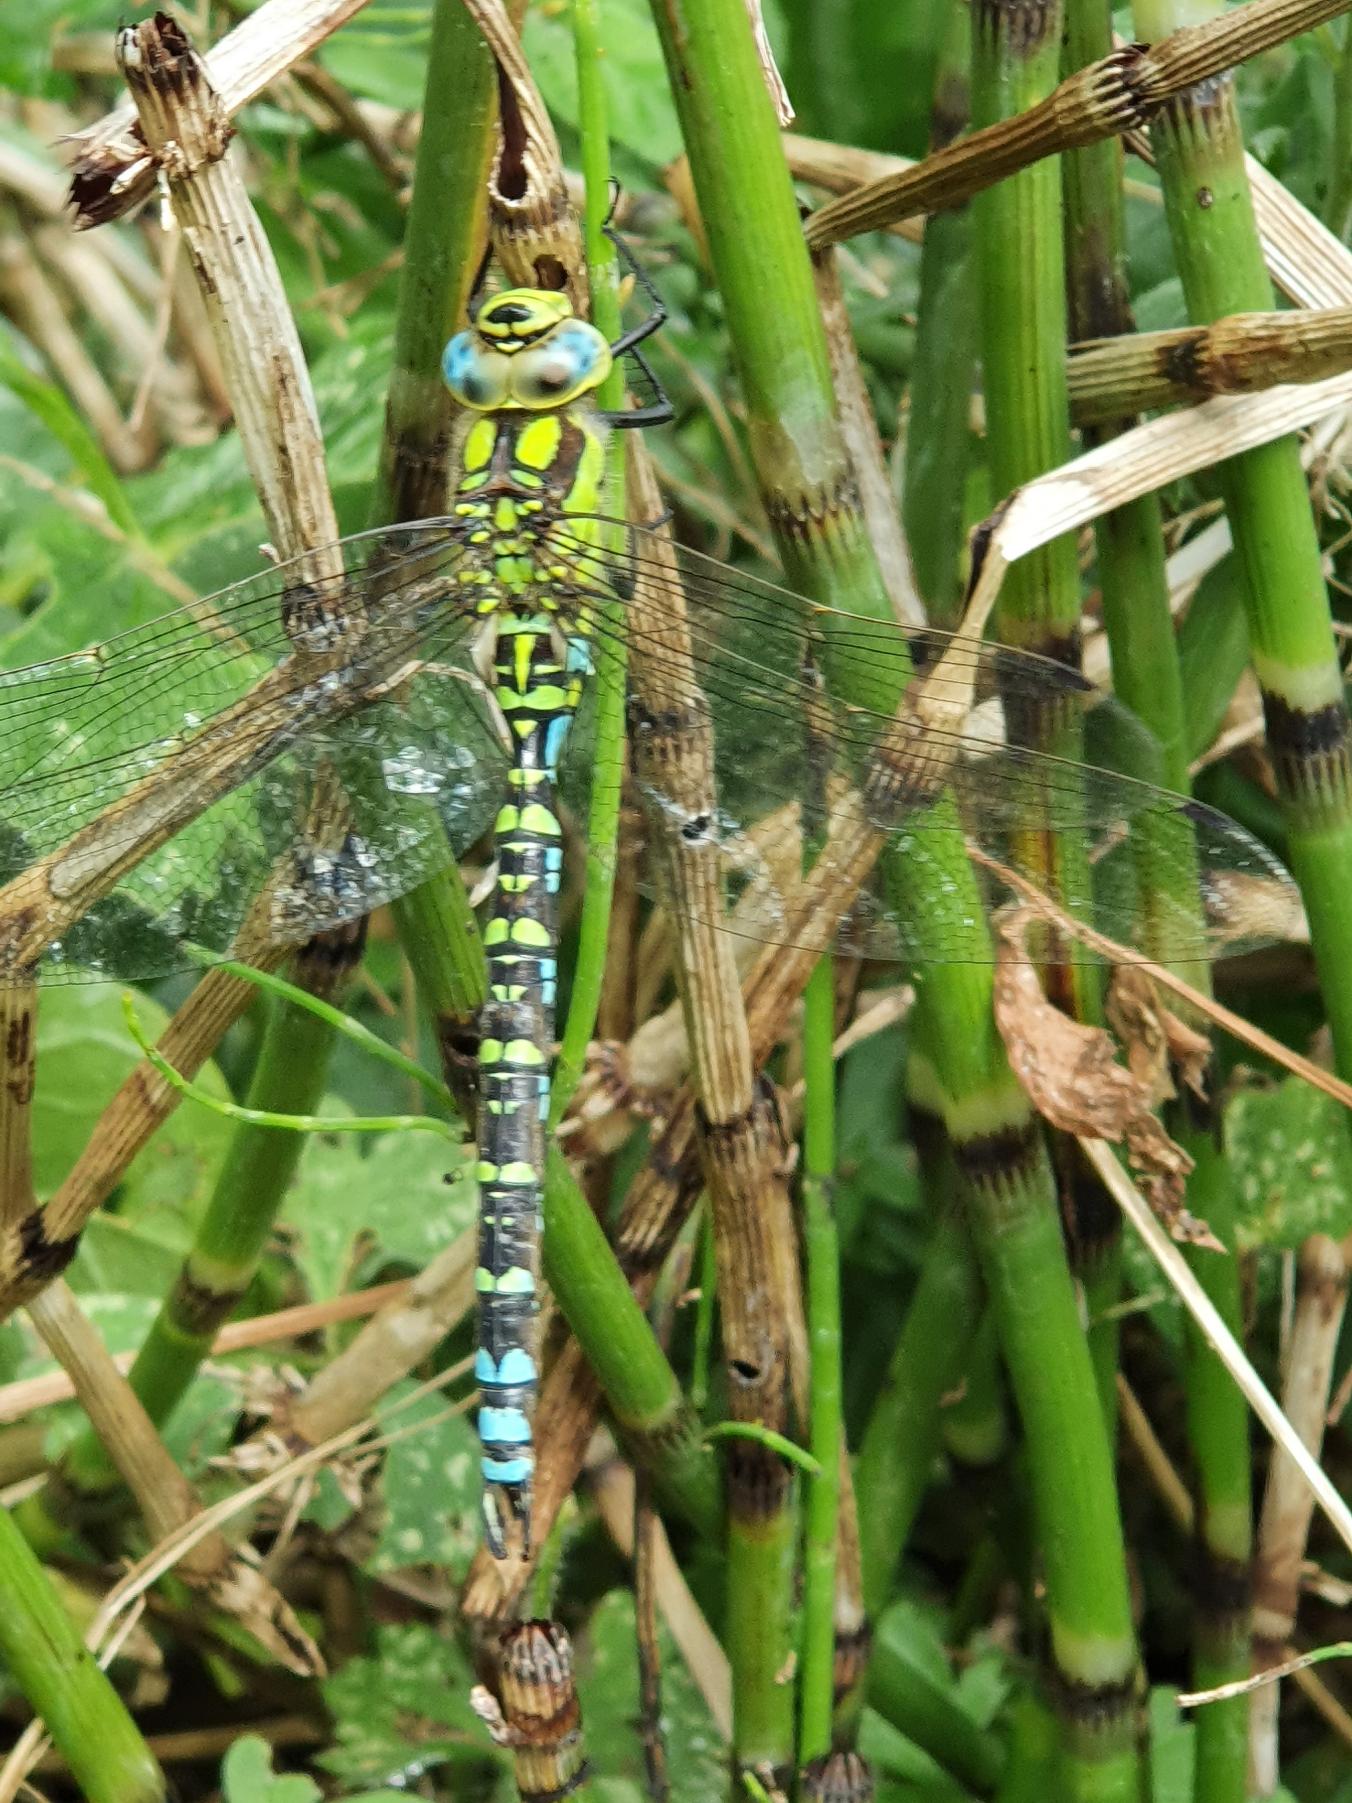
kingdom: Animalia
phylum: Arthropoda
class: Insecta
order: Odonata
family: Aeshnidae
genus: Aeshna
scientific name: Aeshna cyanea
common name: Blå mosaikguldsmed
